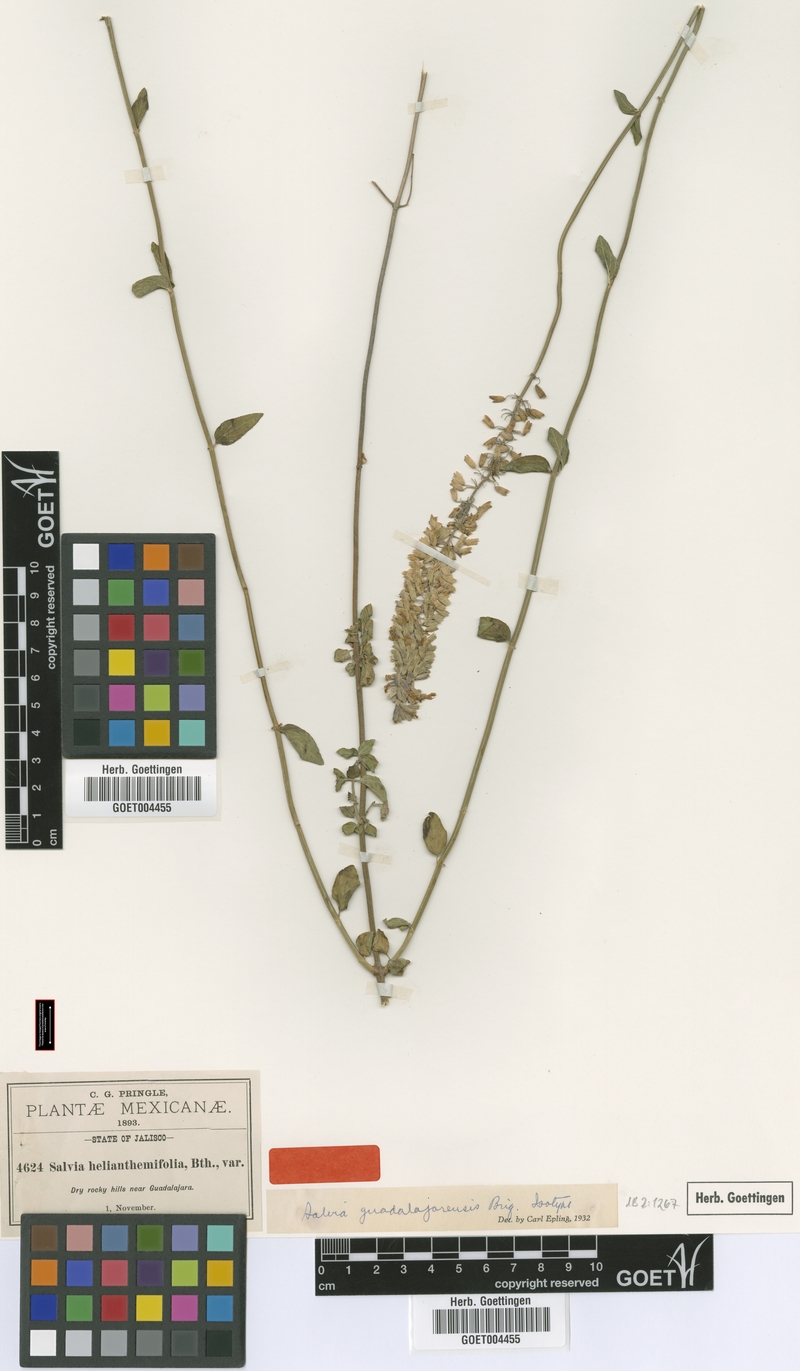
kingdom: Plantae
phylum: Tracheophyta
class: Magnoliopsida
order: Lamiales
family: Lamiaceae
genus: Salvia
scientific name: Salvia guadalajarensis
